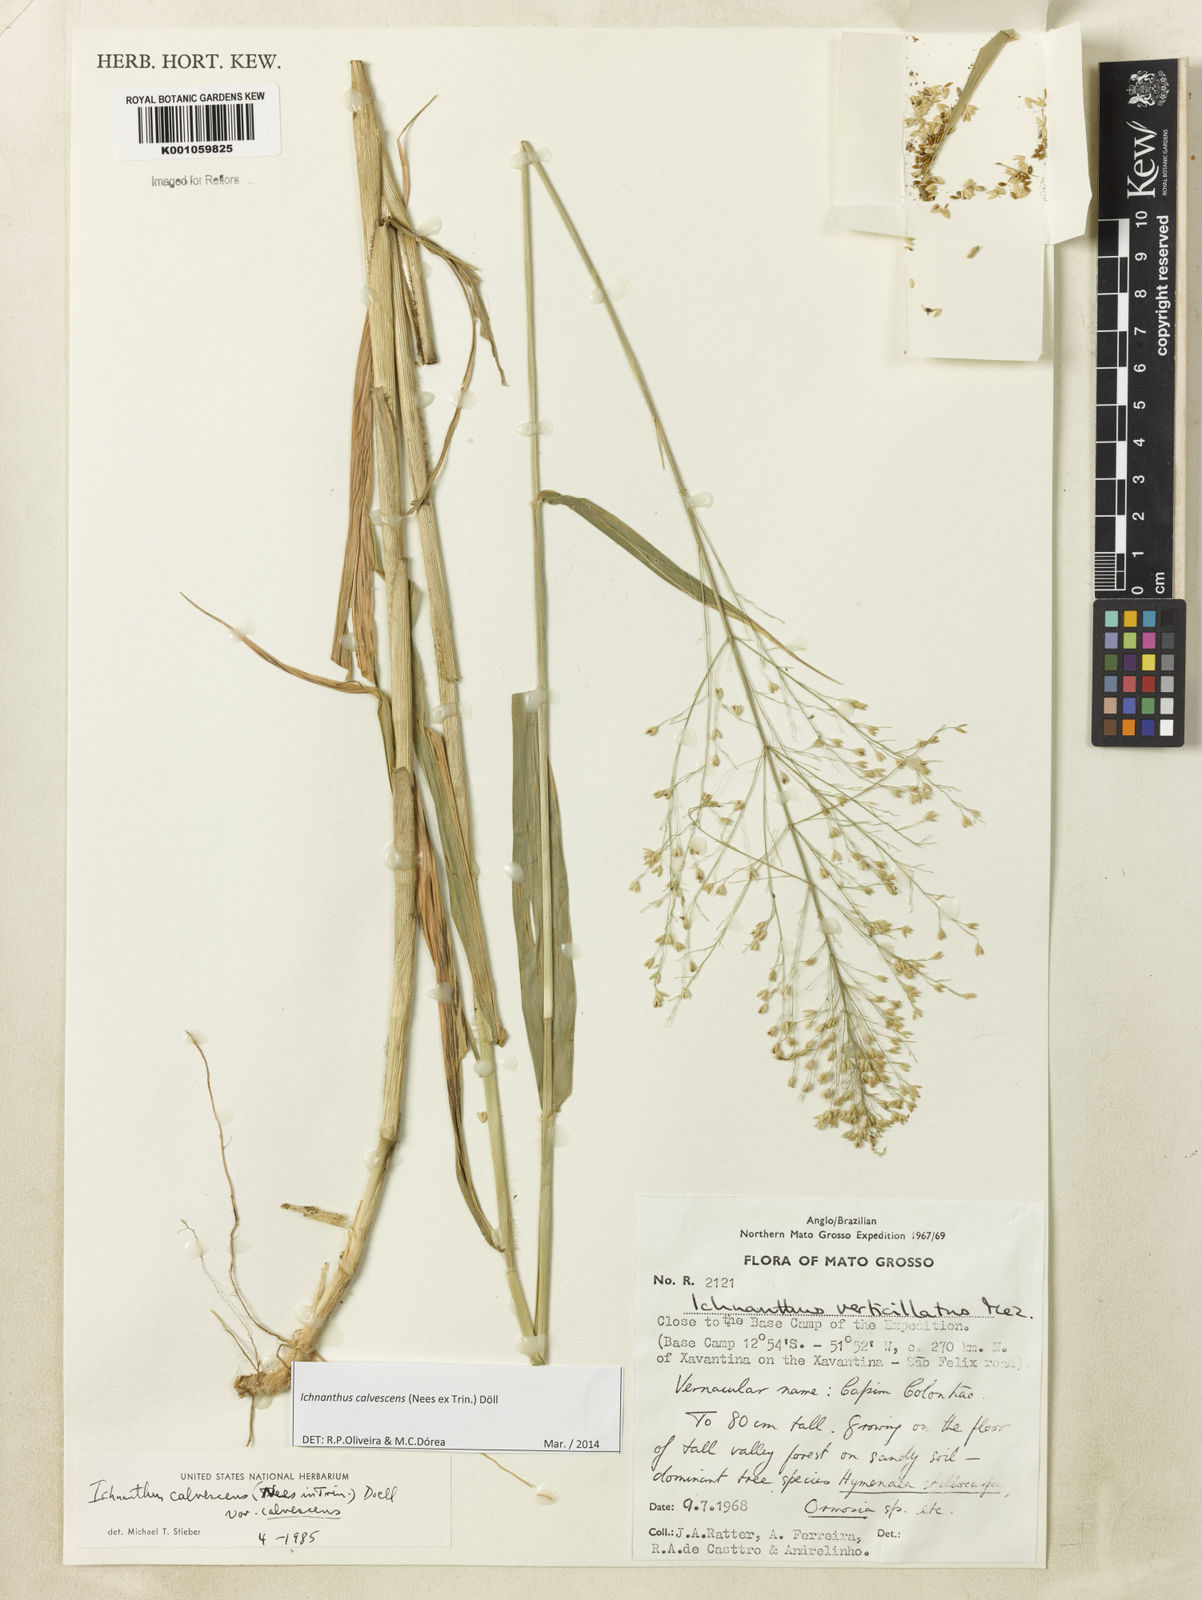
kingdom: Plantae
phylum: Tracheophyta
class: Liliopsida
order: Poales
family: Poaceae
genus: Ichnanthus
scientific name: Ichnanthus
